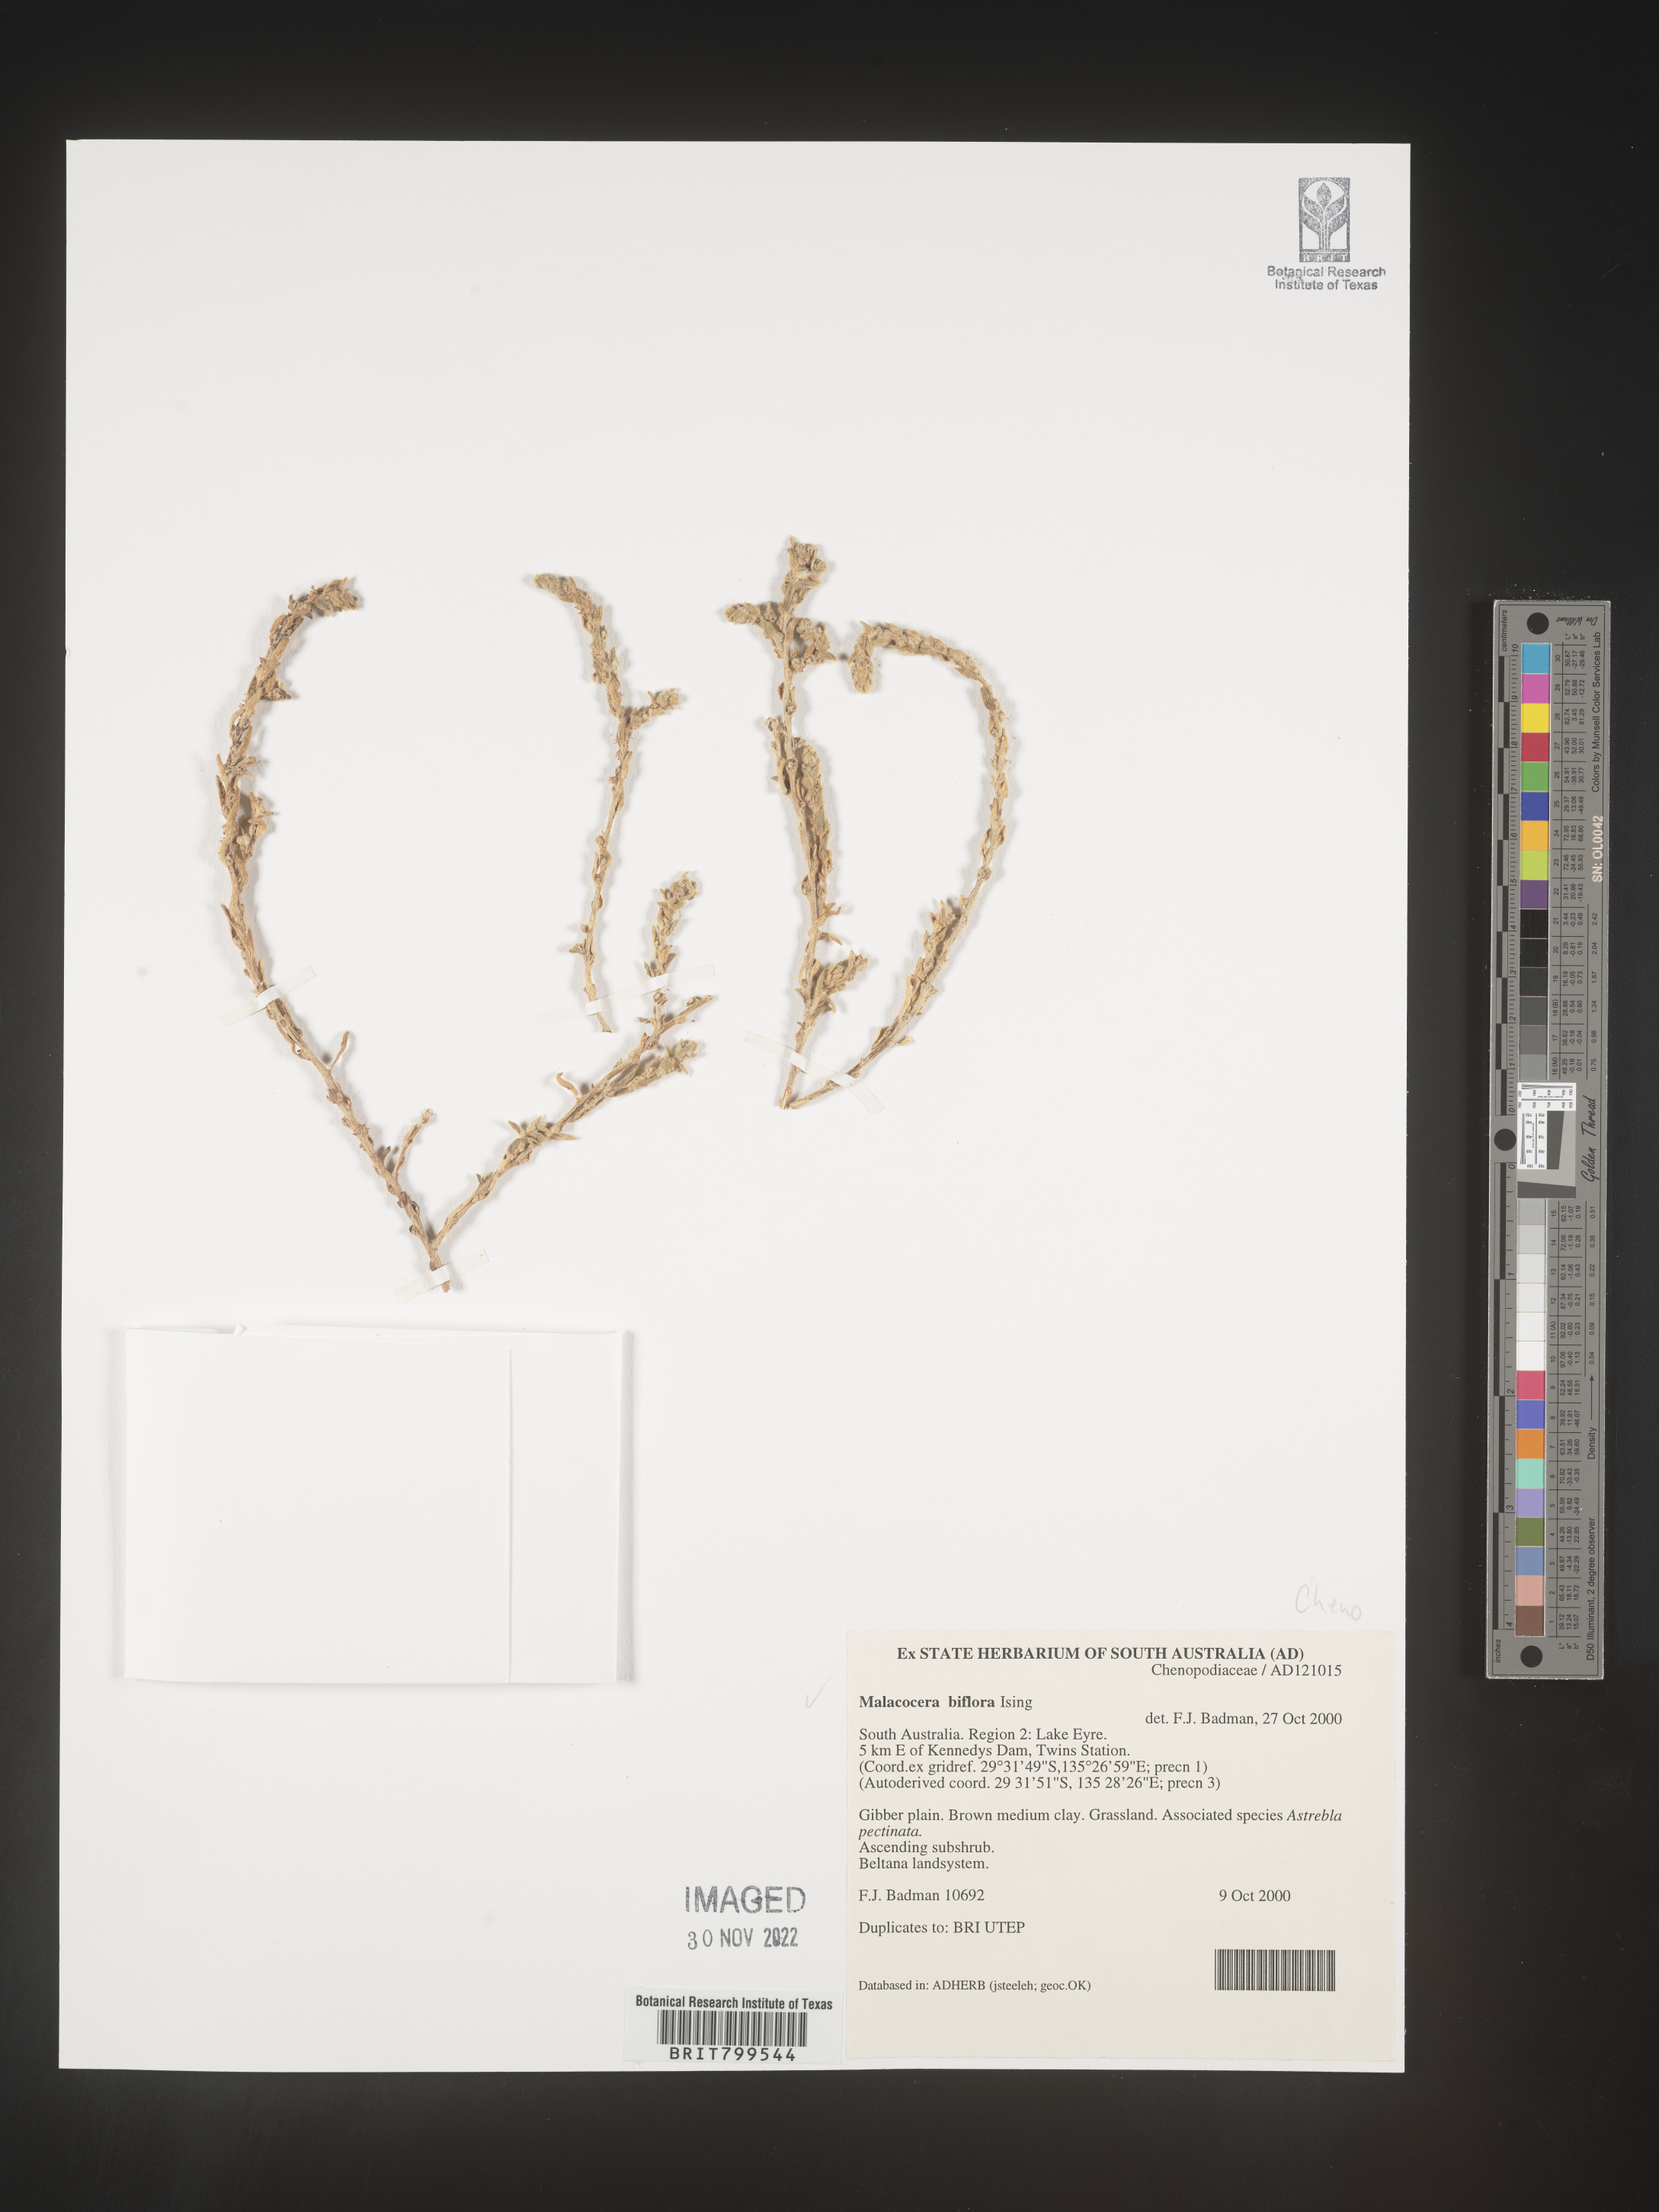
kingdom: Plantae
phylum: Tracheophyta
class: Magnoliopsida
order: Caryophyllales
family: Amaranthaceae
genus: Malacocera
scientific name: Malacocera
